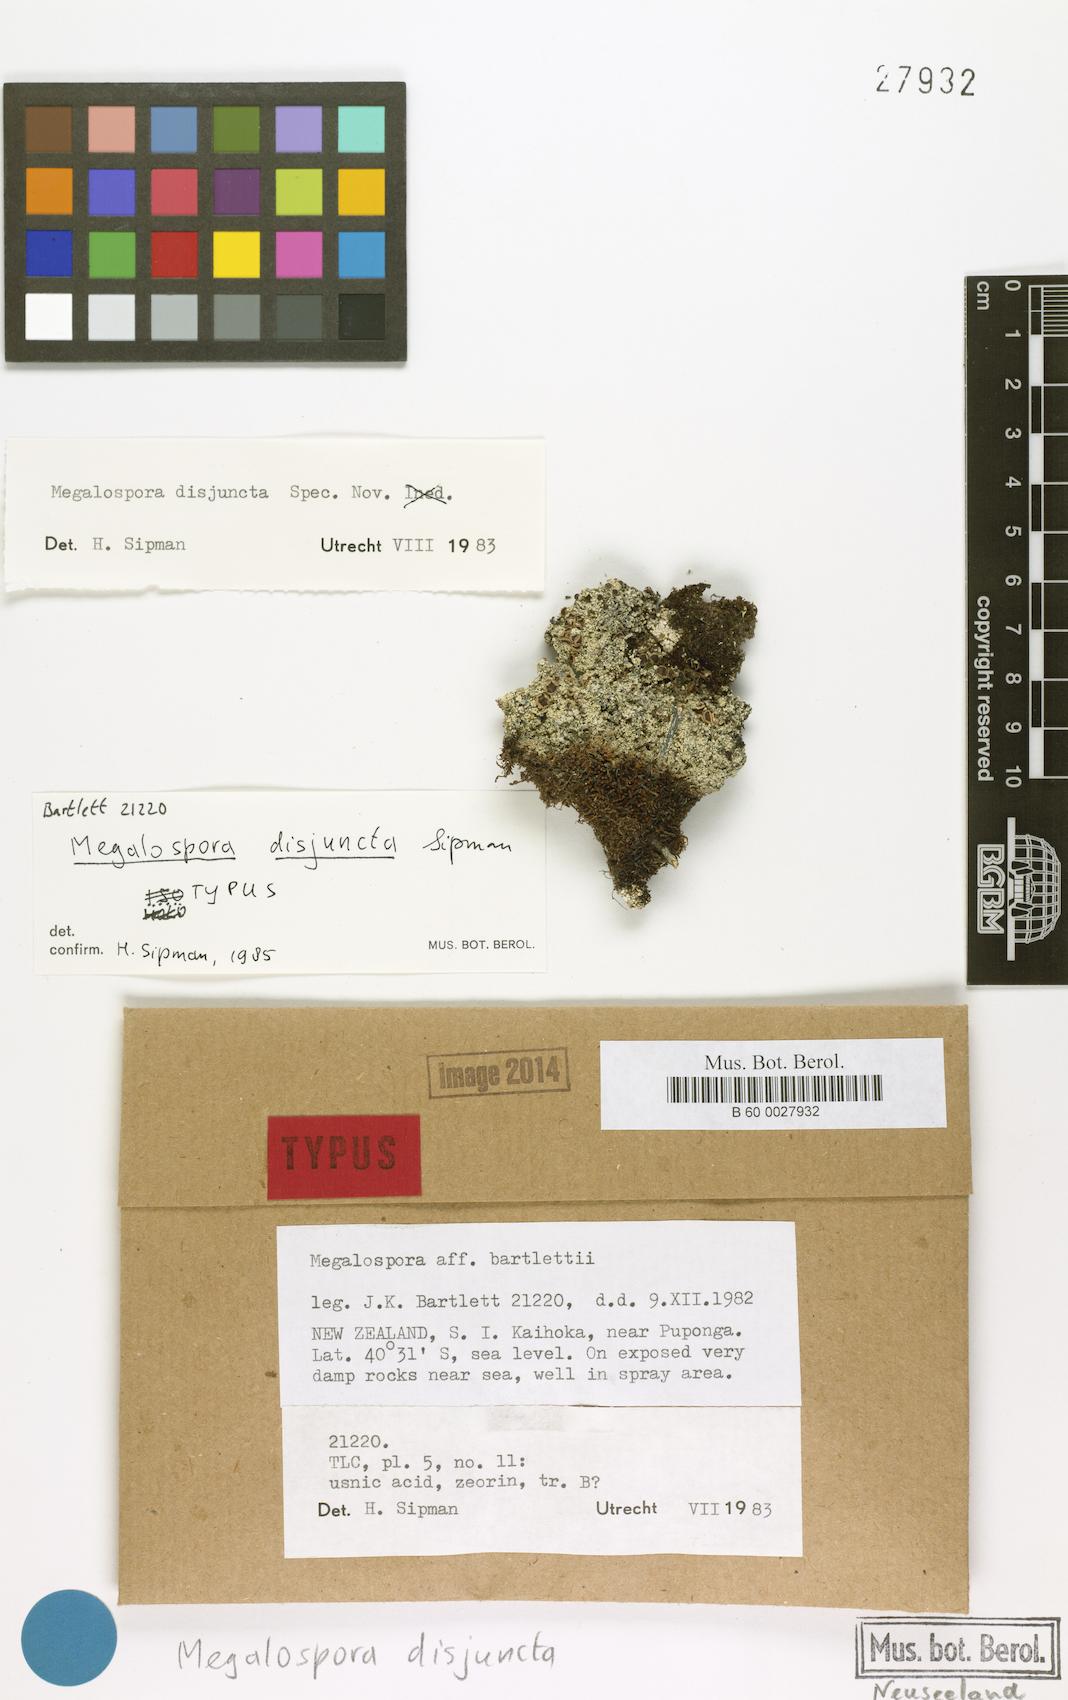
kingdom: Fungi
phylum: Ascomycota
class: Lecanoromycetes
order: Teloschistales
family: Megalosporaceae
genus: Megalospora
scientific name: Megalospora disjuncta
